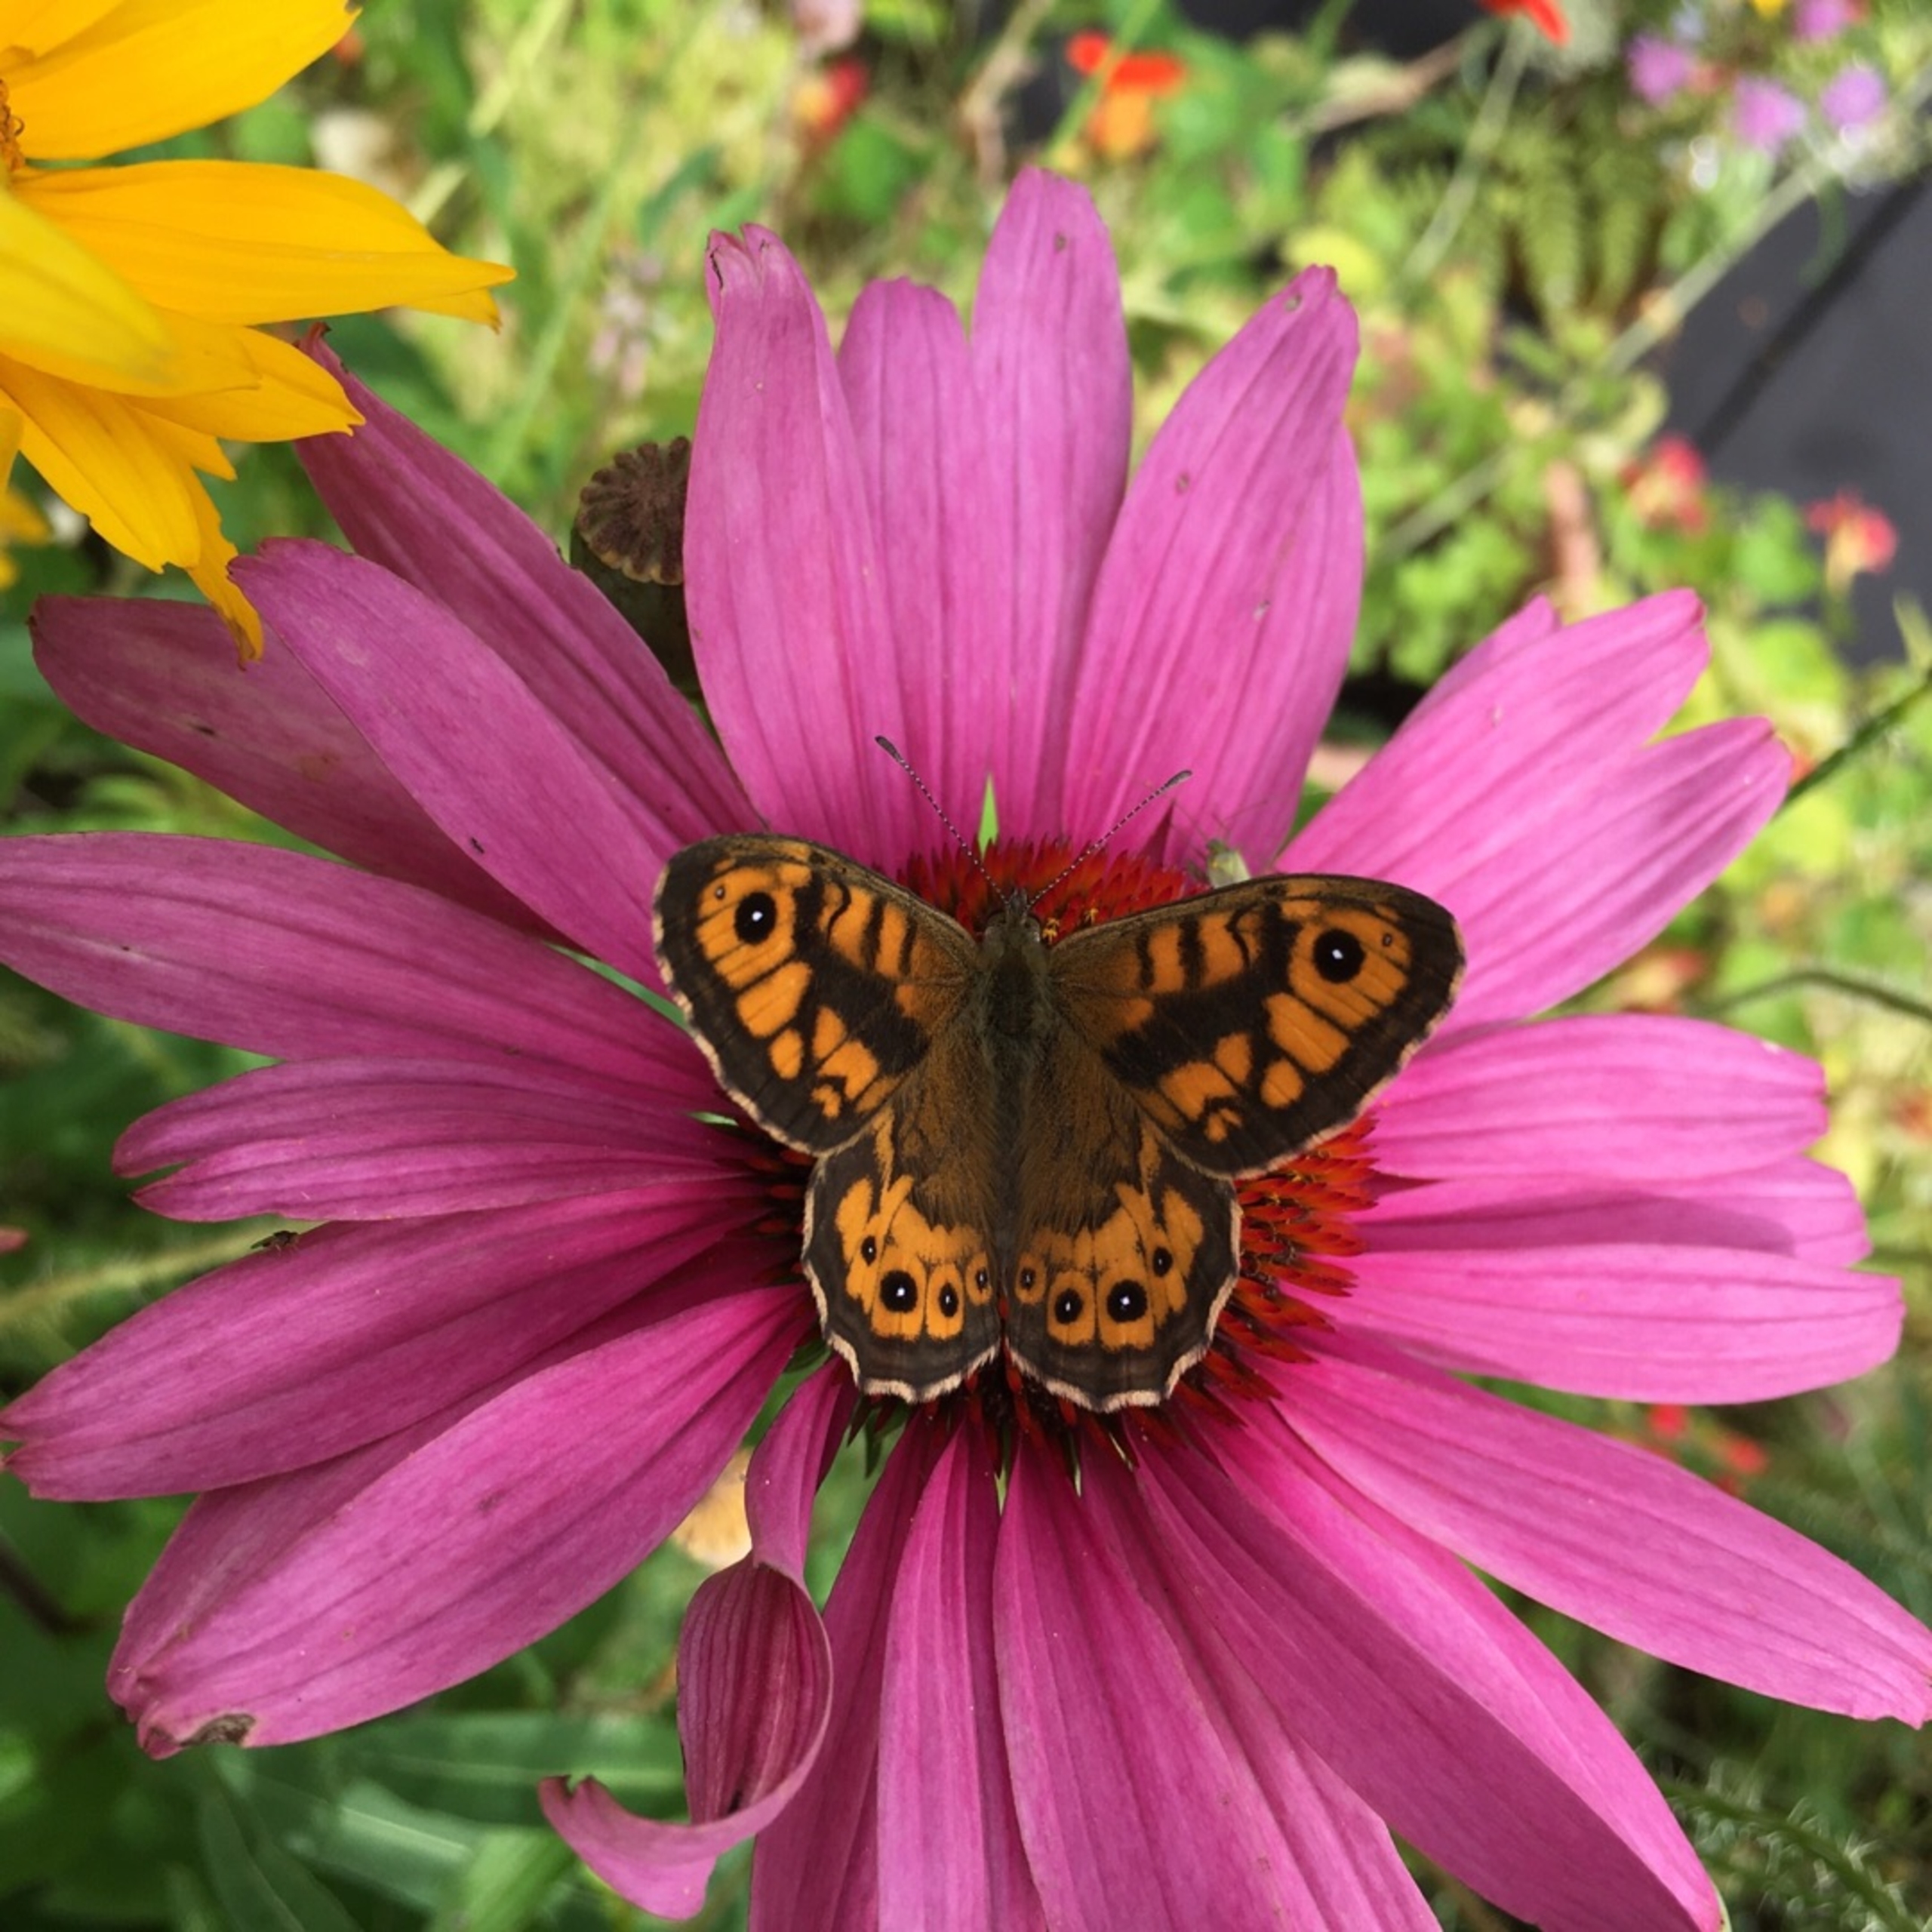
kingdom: Animalia
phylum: Arthropoda
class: Insecta
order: Lepidoptera
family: Nymphalidae
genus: Pararge
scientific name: Pararge Lasiommata megera
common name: Vejrandøje
